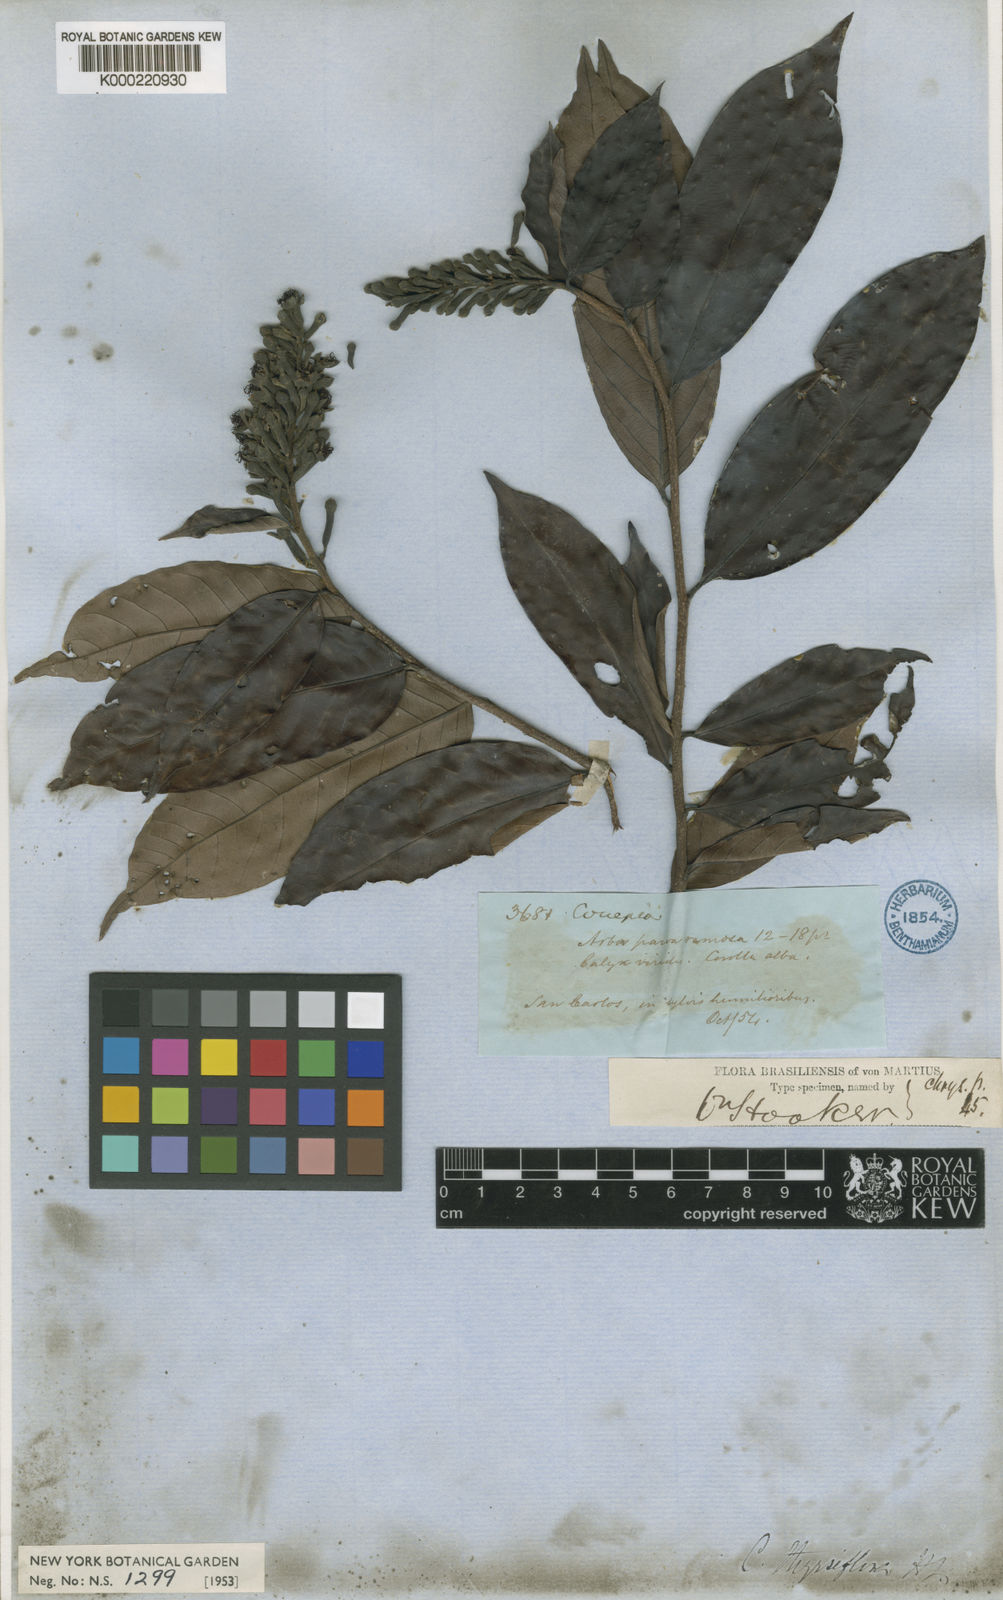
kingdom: Plantae
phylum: Tracheophyta
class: Magnoliopsida
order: Malpighiales
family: Chrysobalanaceae
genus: Couepia
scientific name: Couepia guianensis
